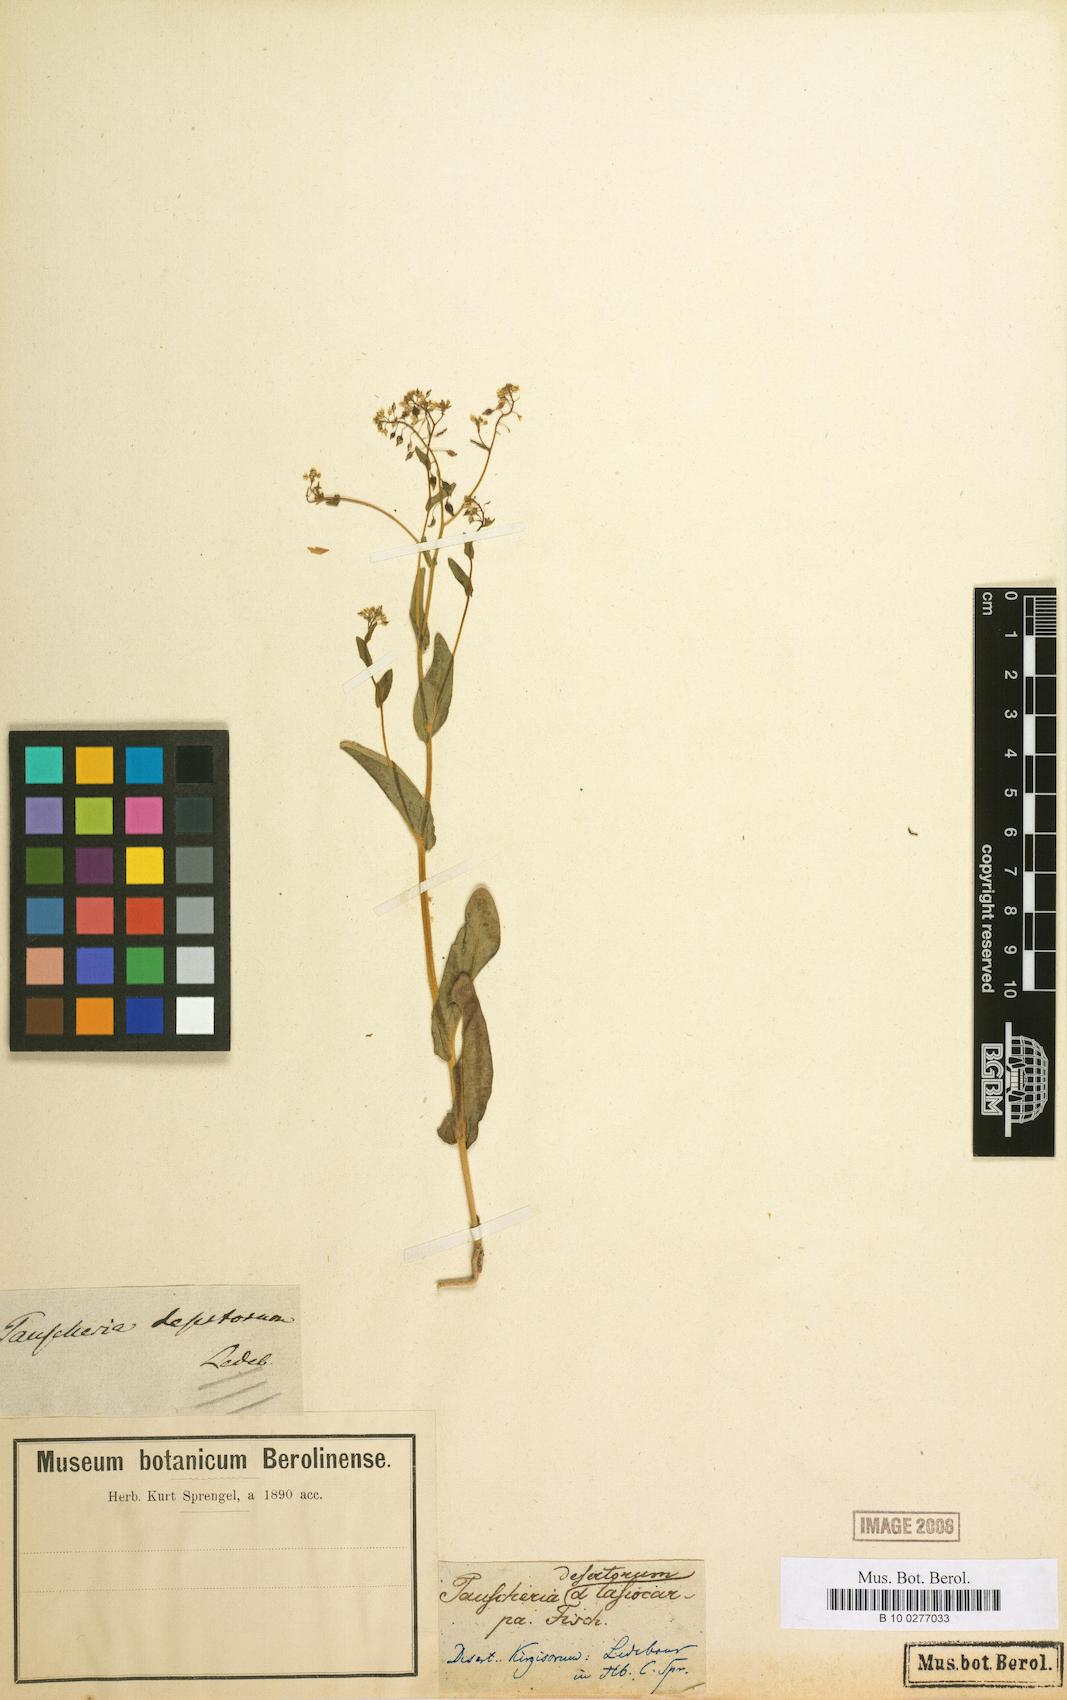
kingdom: Plantae
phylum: Tracheophyta
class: Magnoliopsida
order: Brassicales
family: Brassicaceae
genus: Isatis
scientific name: Isatis gymnocarpa
